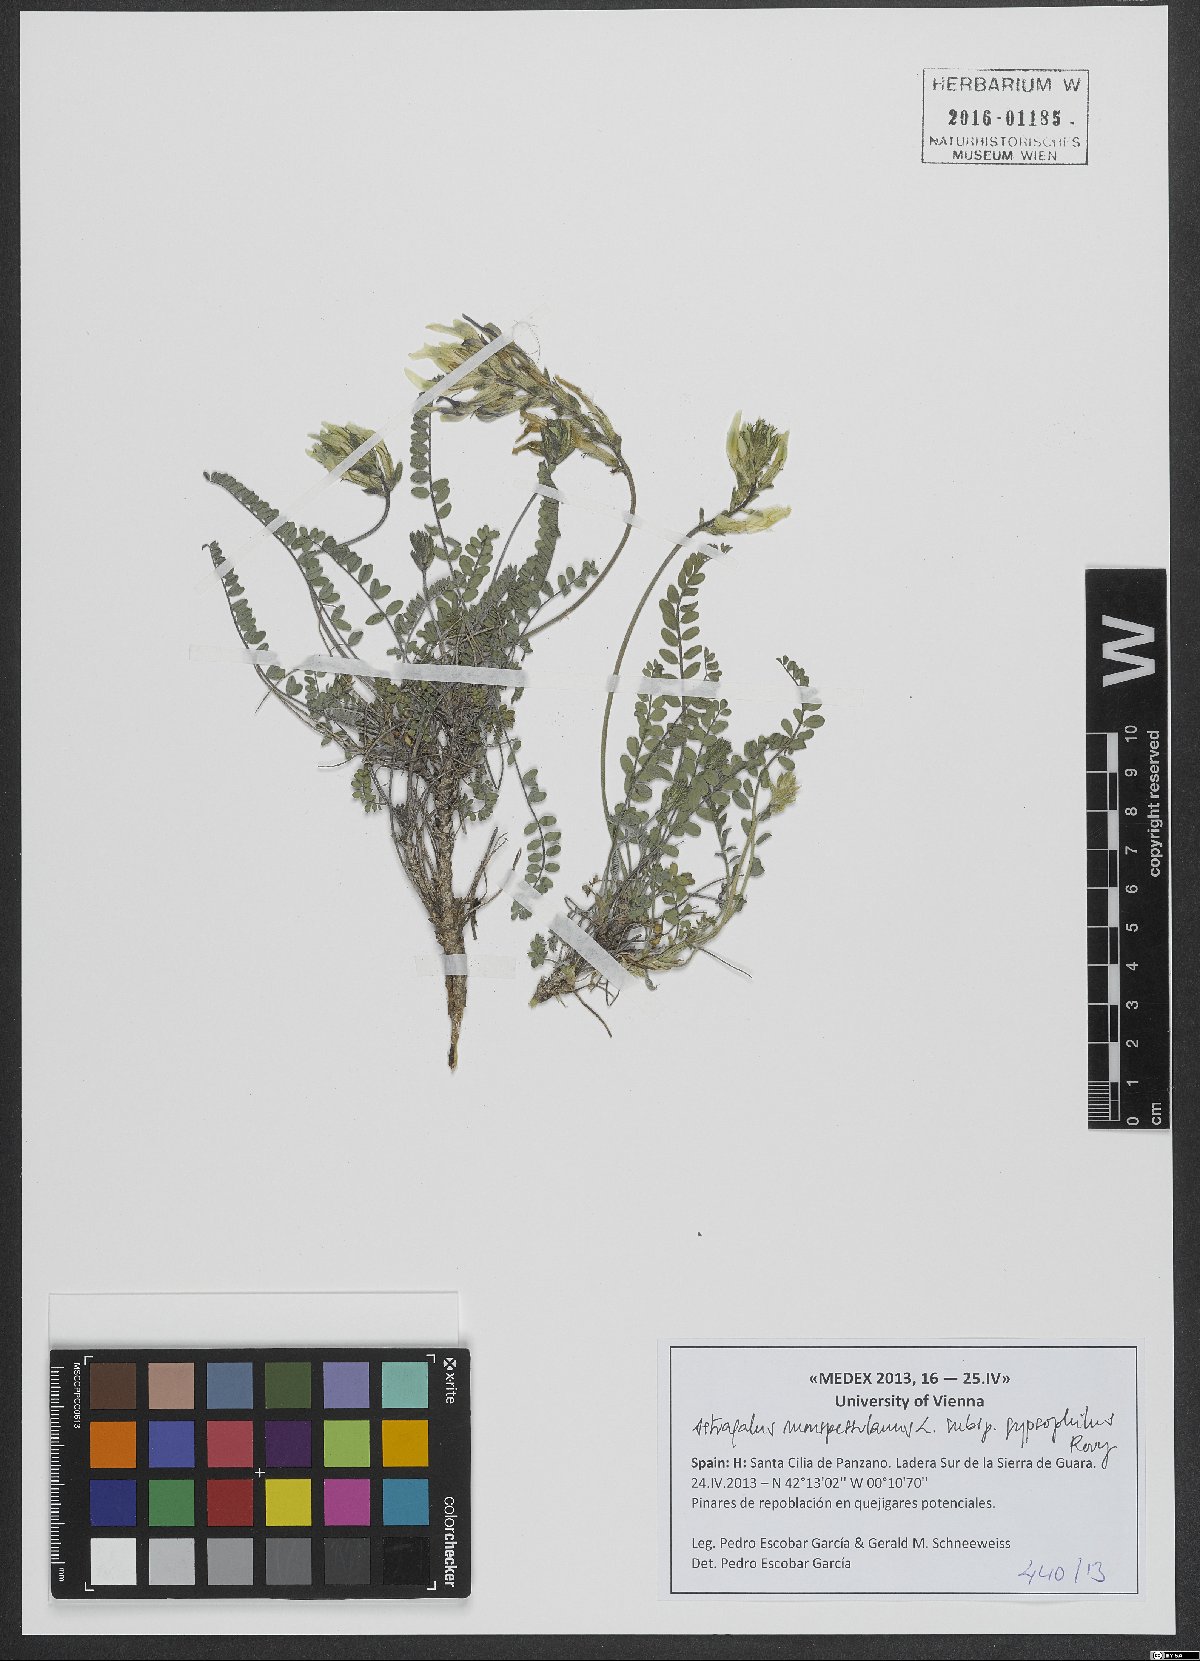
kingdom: Plantae
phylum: Tracheophyta
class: Magnoliopsida
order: Fabales
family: Fabaceae
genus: Astragalus
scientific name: Astragalus monspessulanus
